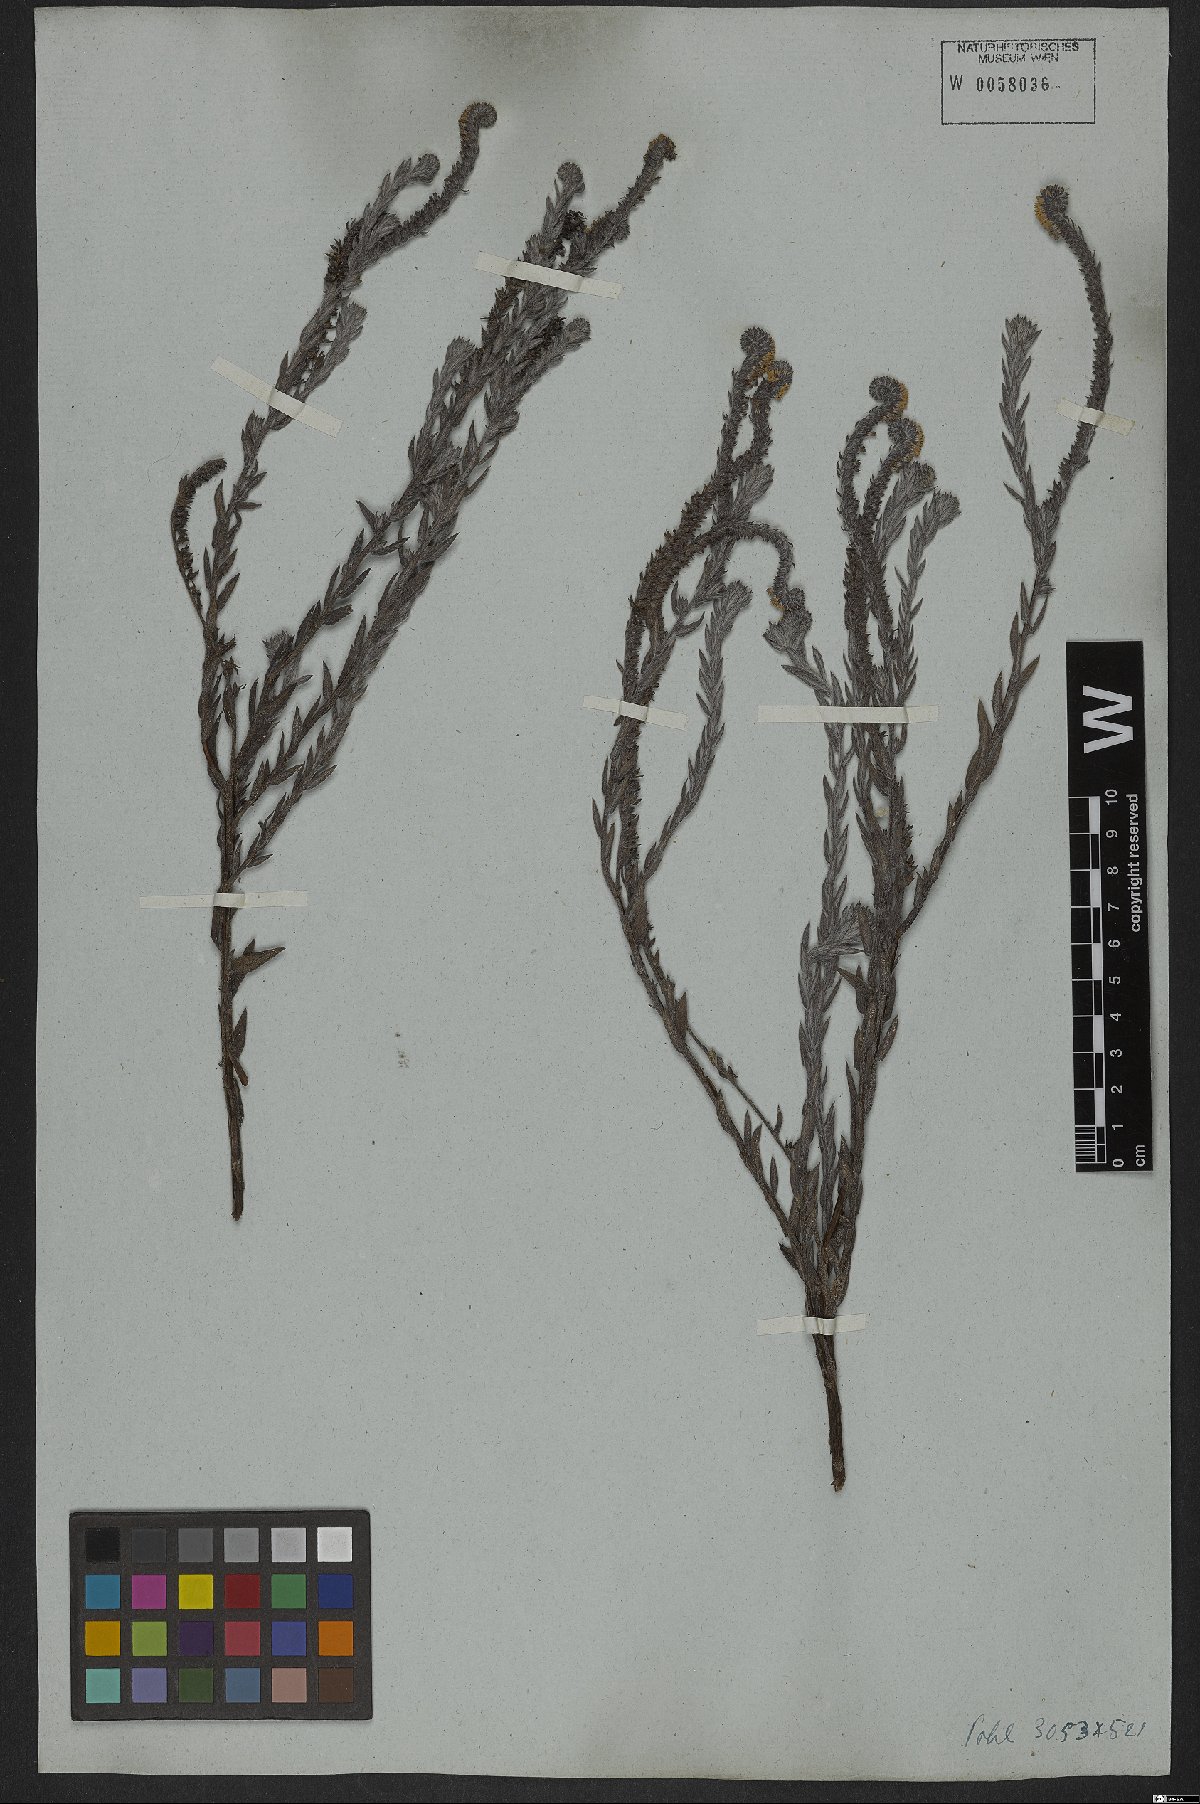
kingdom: Plantae
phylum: Tracheophyta
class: Magnoliopsida
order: Boraginales
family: Heliotropiaceae
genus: Heliotropium
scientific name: Heliotropium strictissimum
